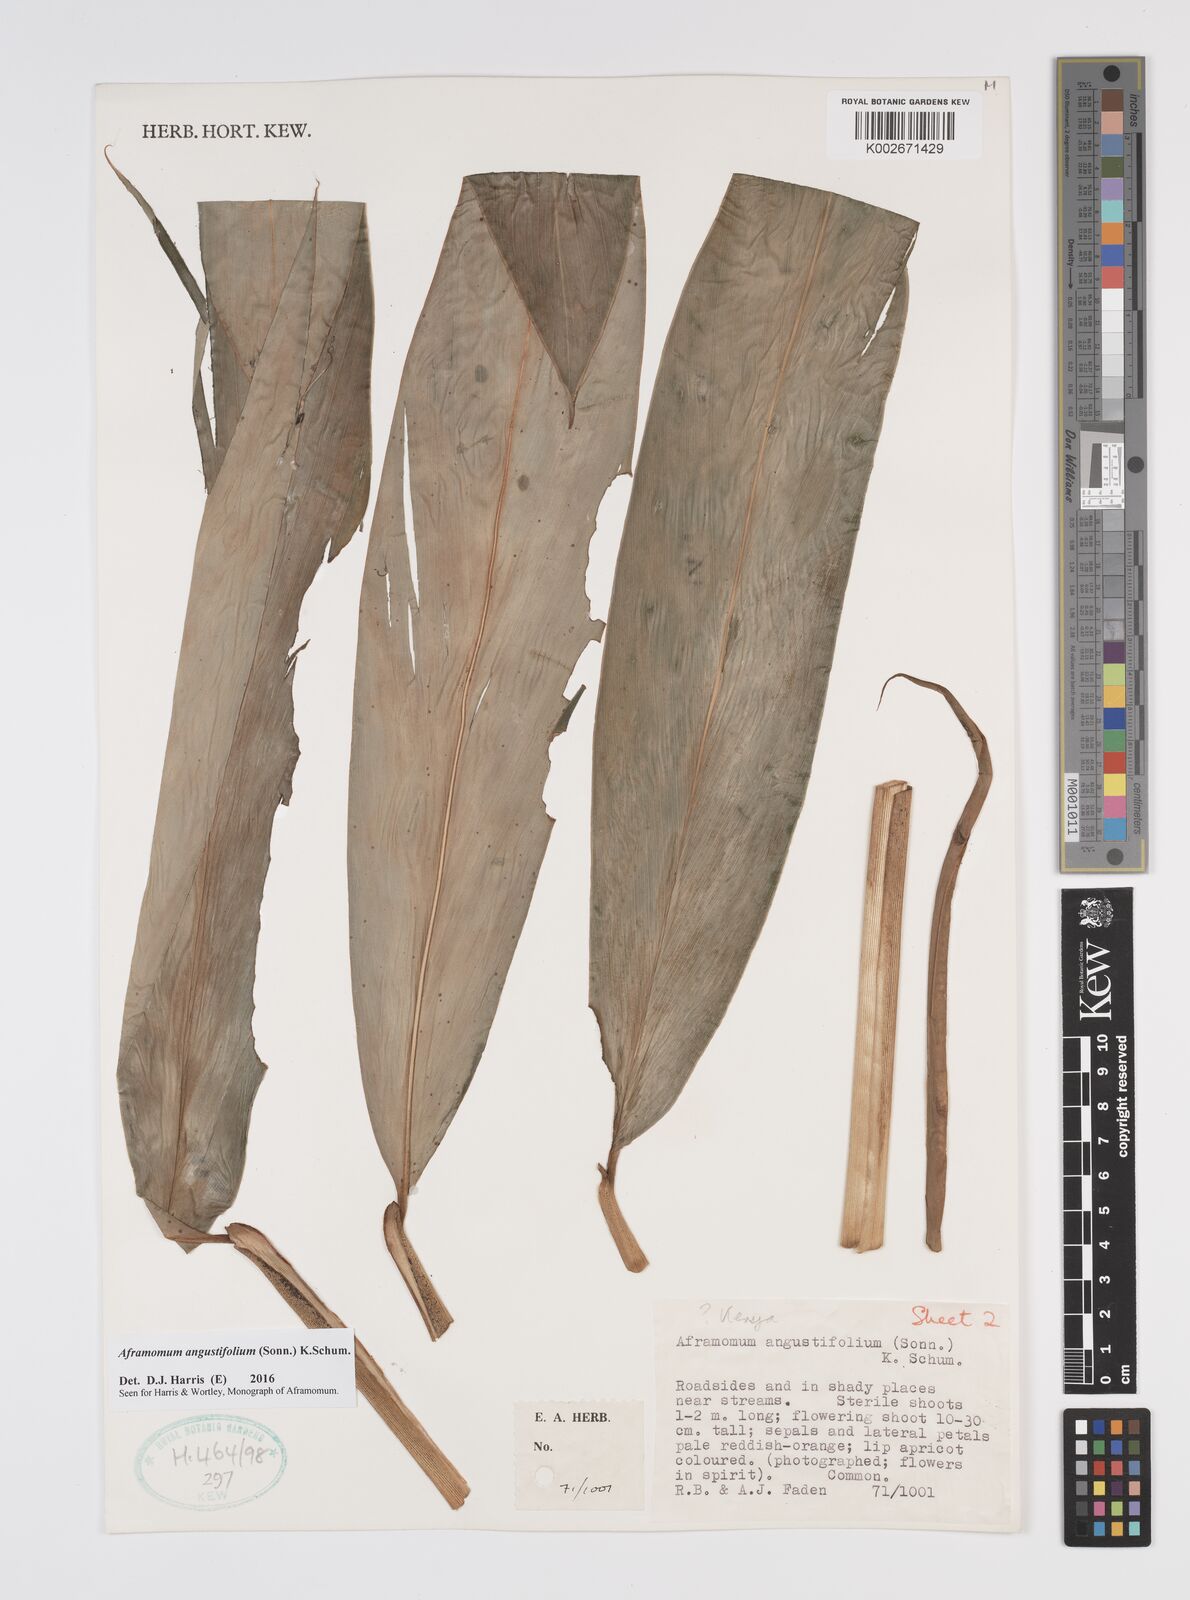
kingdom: Plantae
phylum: Tracheophyta
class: Liliopsida
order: Zingiberales
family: Zingiberaceae
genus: Aframomum
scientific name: Aframomum angustifolium
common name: Guinea grains
